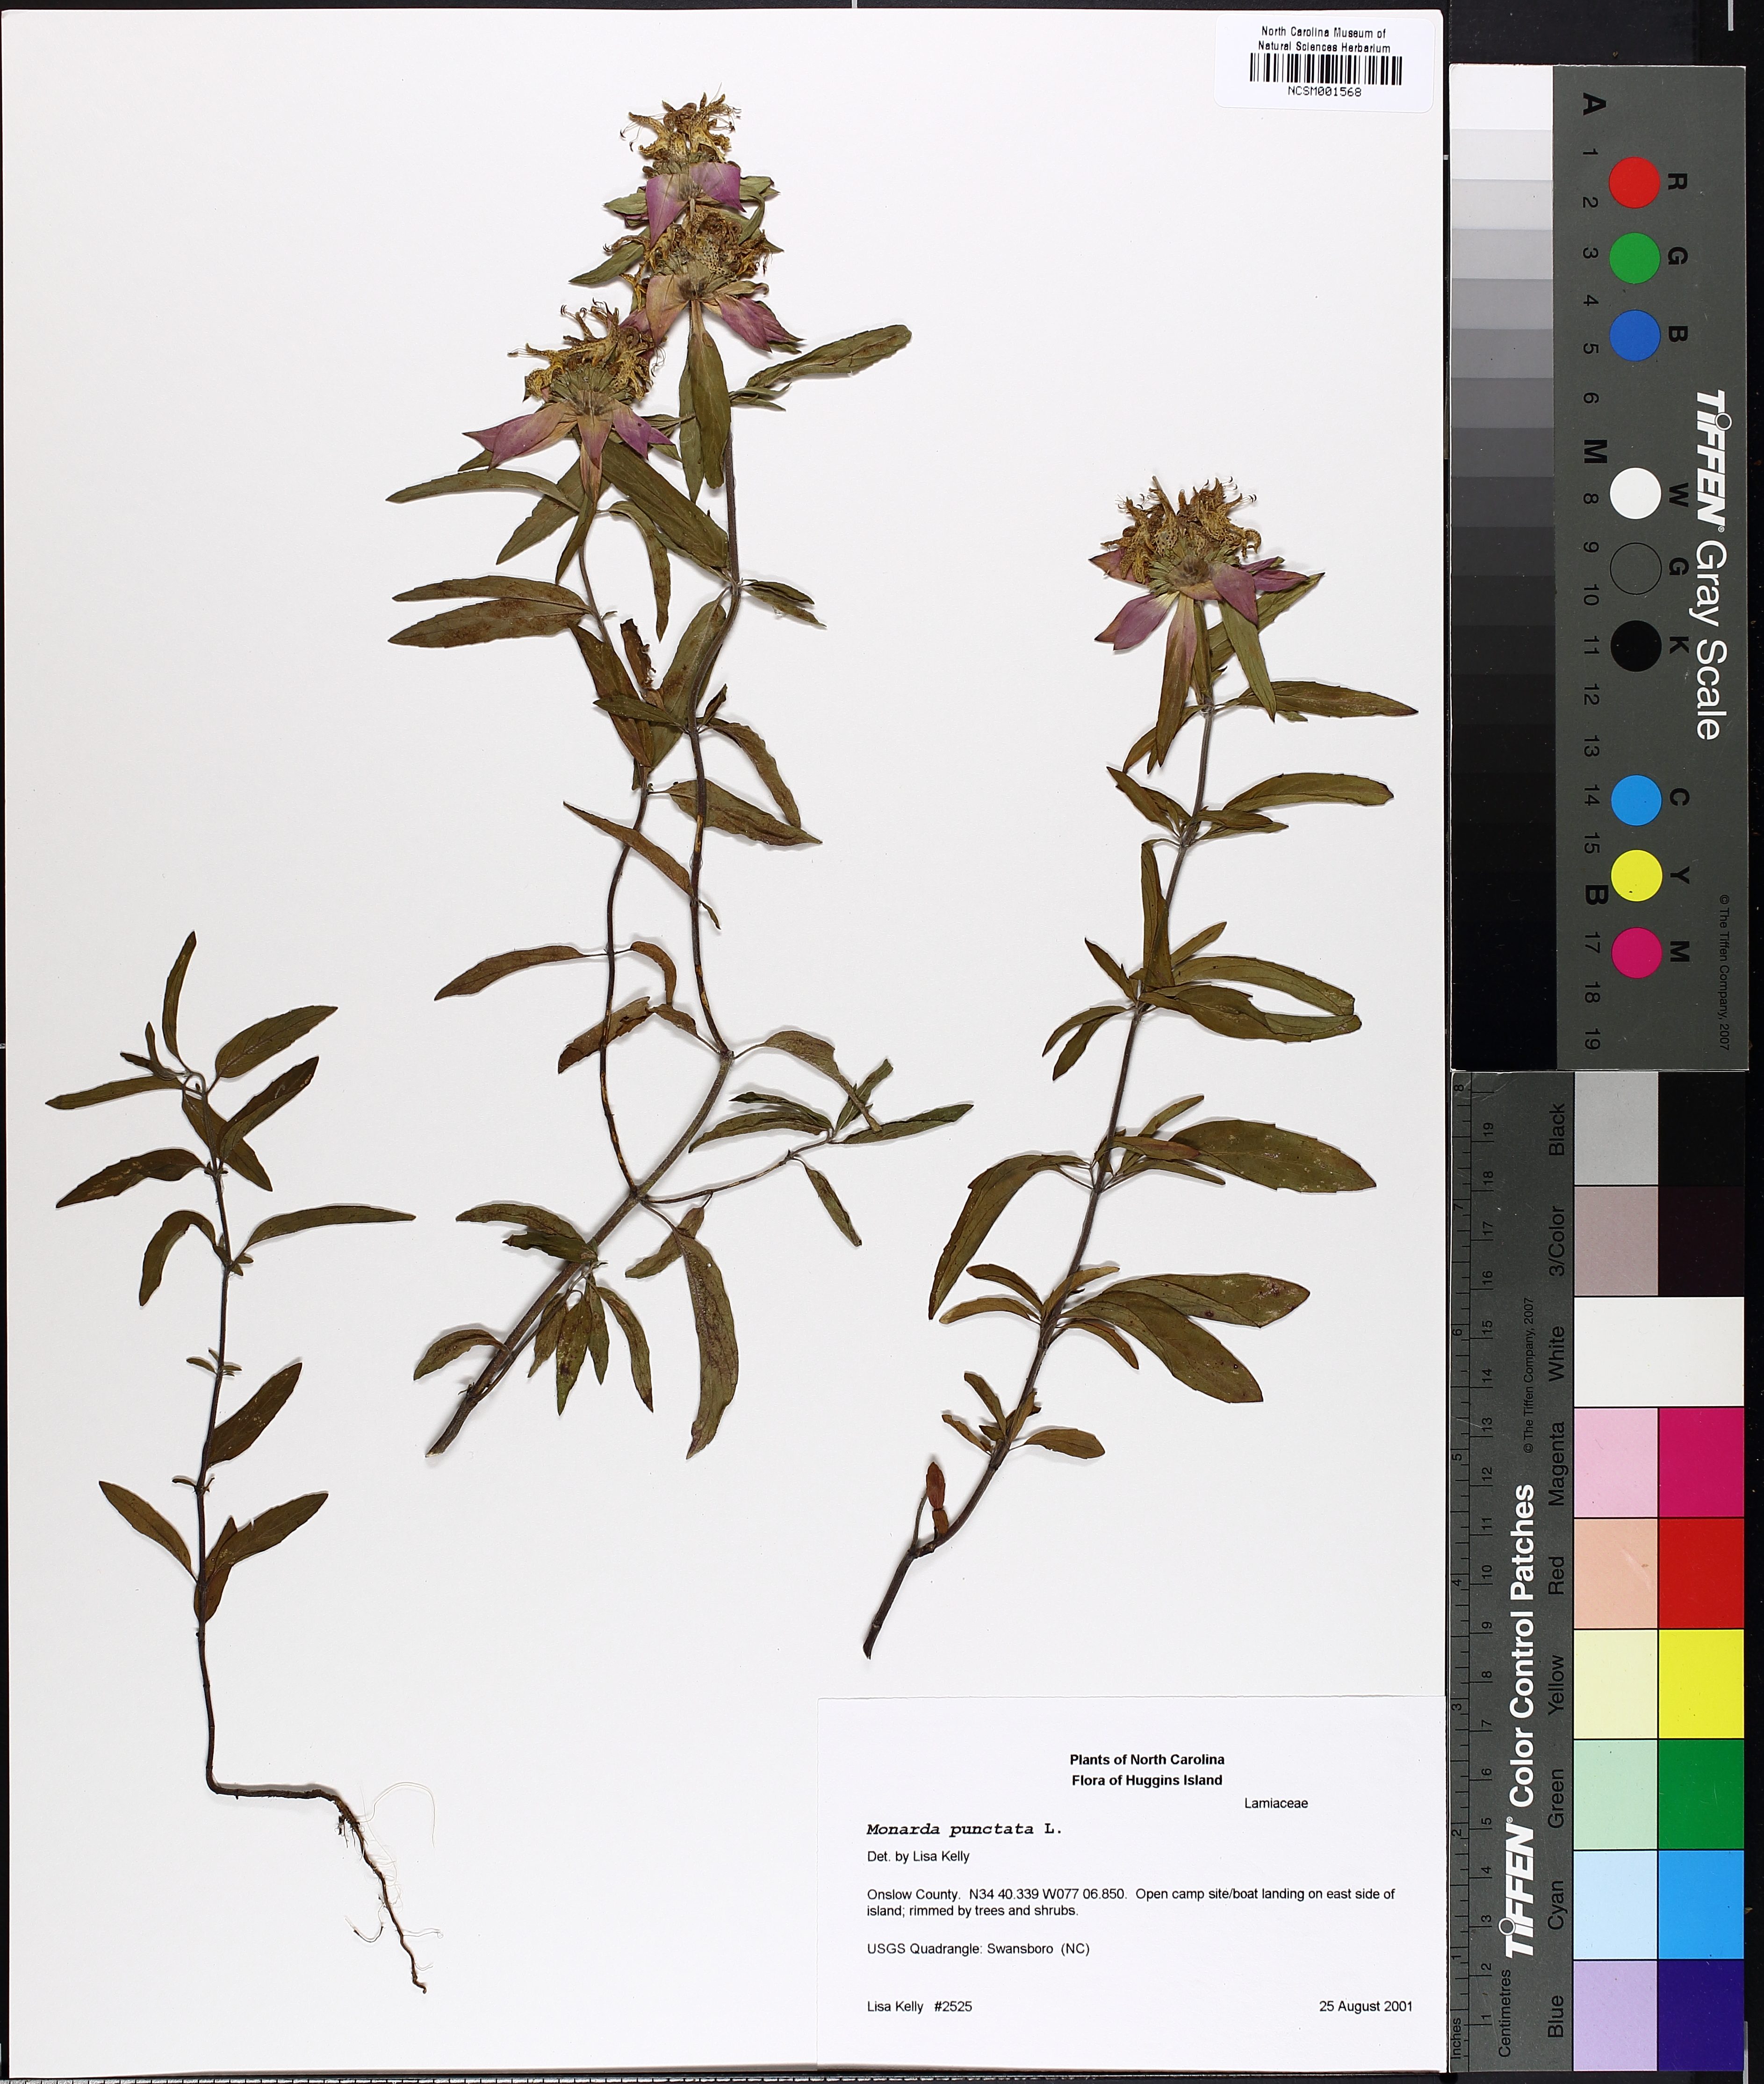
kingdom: Plantae
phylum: Tracheophyta
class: Magnoliopsida
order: Lamiales
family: Lamiaceae
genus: Monarda
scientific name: Monarda punctata
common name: Dotted monarda
